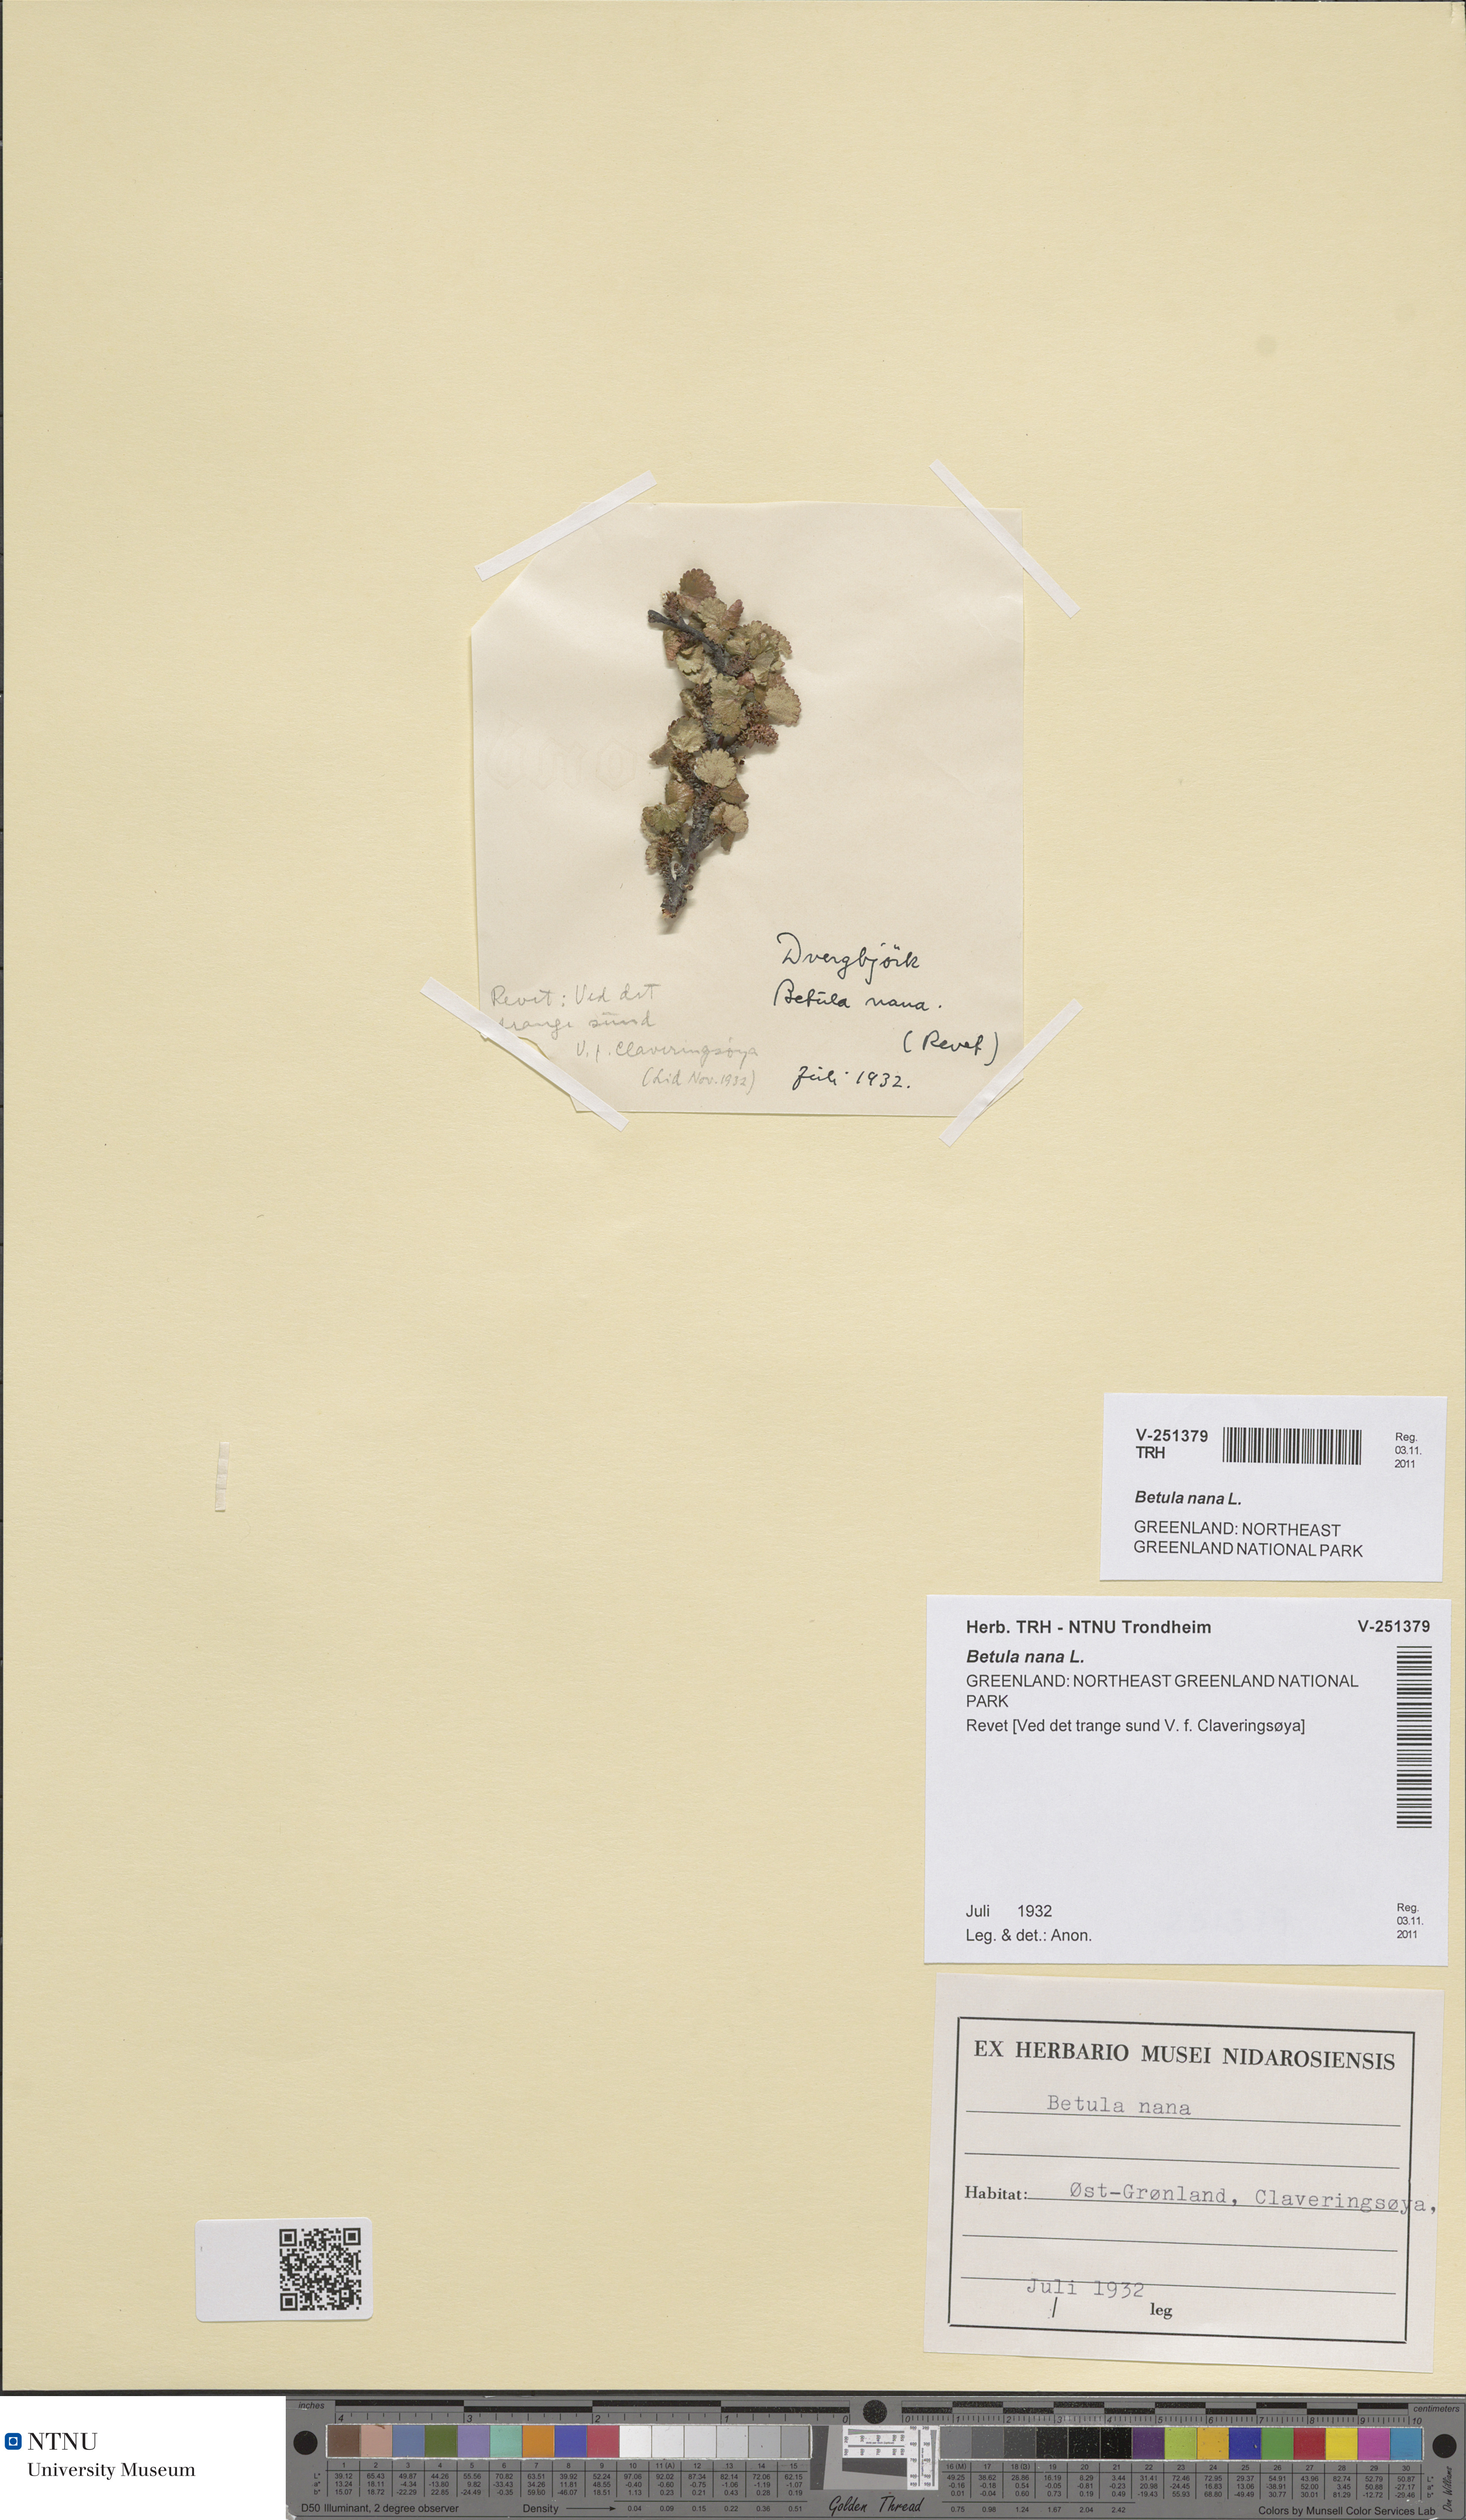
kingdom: Plantae
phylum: Tracheophyta
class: Magnoliopsida
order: Fagales
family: Betulaceae
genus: Betula
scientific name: Betula nana
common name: Arctic dwarf birch
